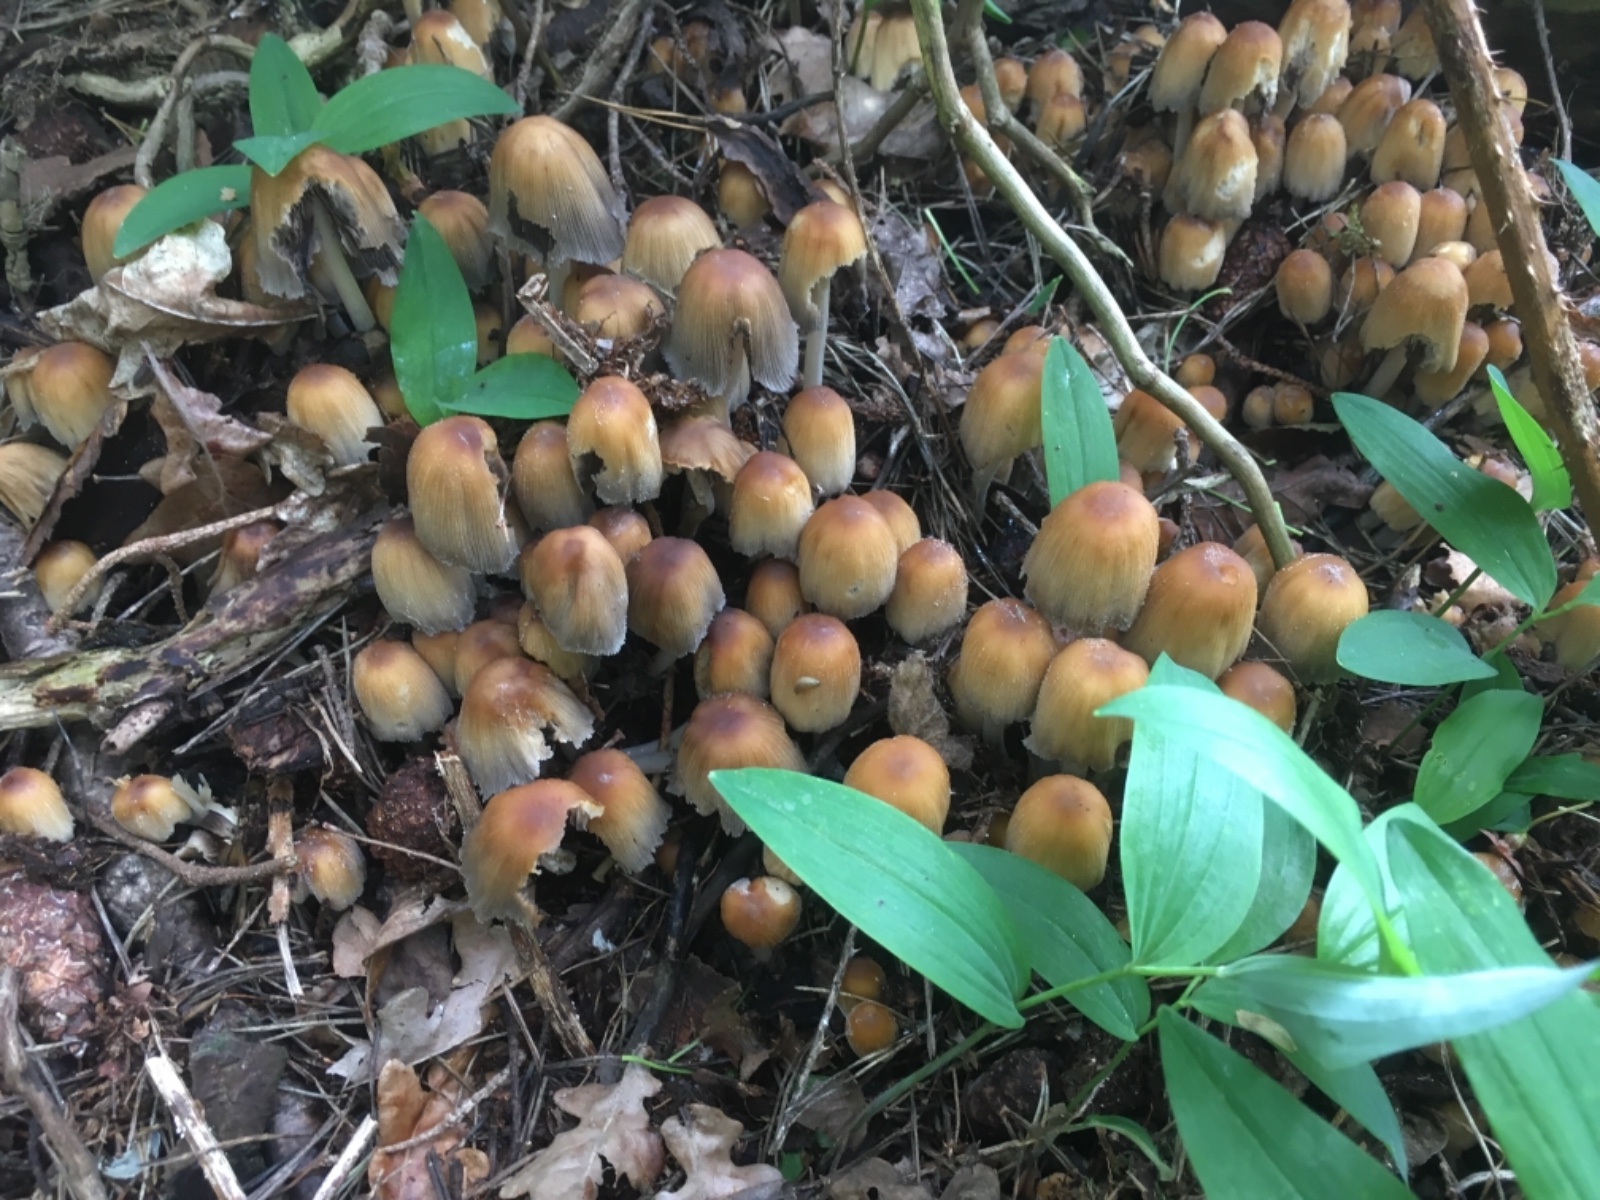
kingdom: Fungi
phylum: Basidiomycota
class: Agaricomycetes
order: Agaricales
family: Psathyrellaceae
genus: Coprinellus
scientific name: Coprinellus micaceus
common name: glimmer-blækhat
